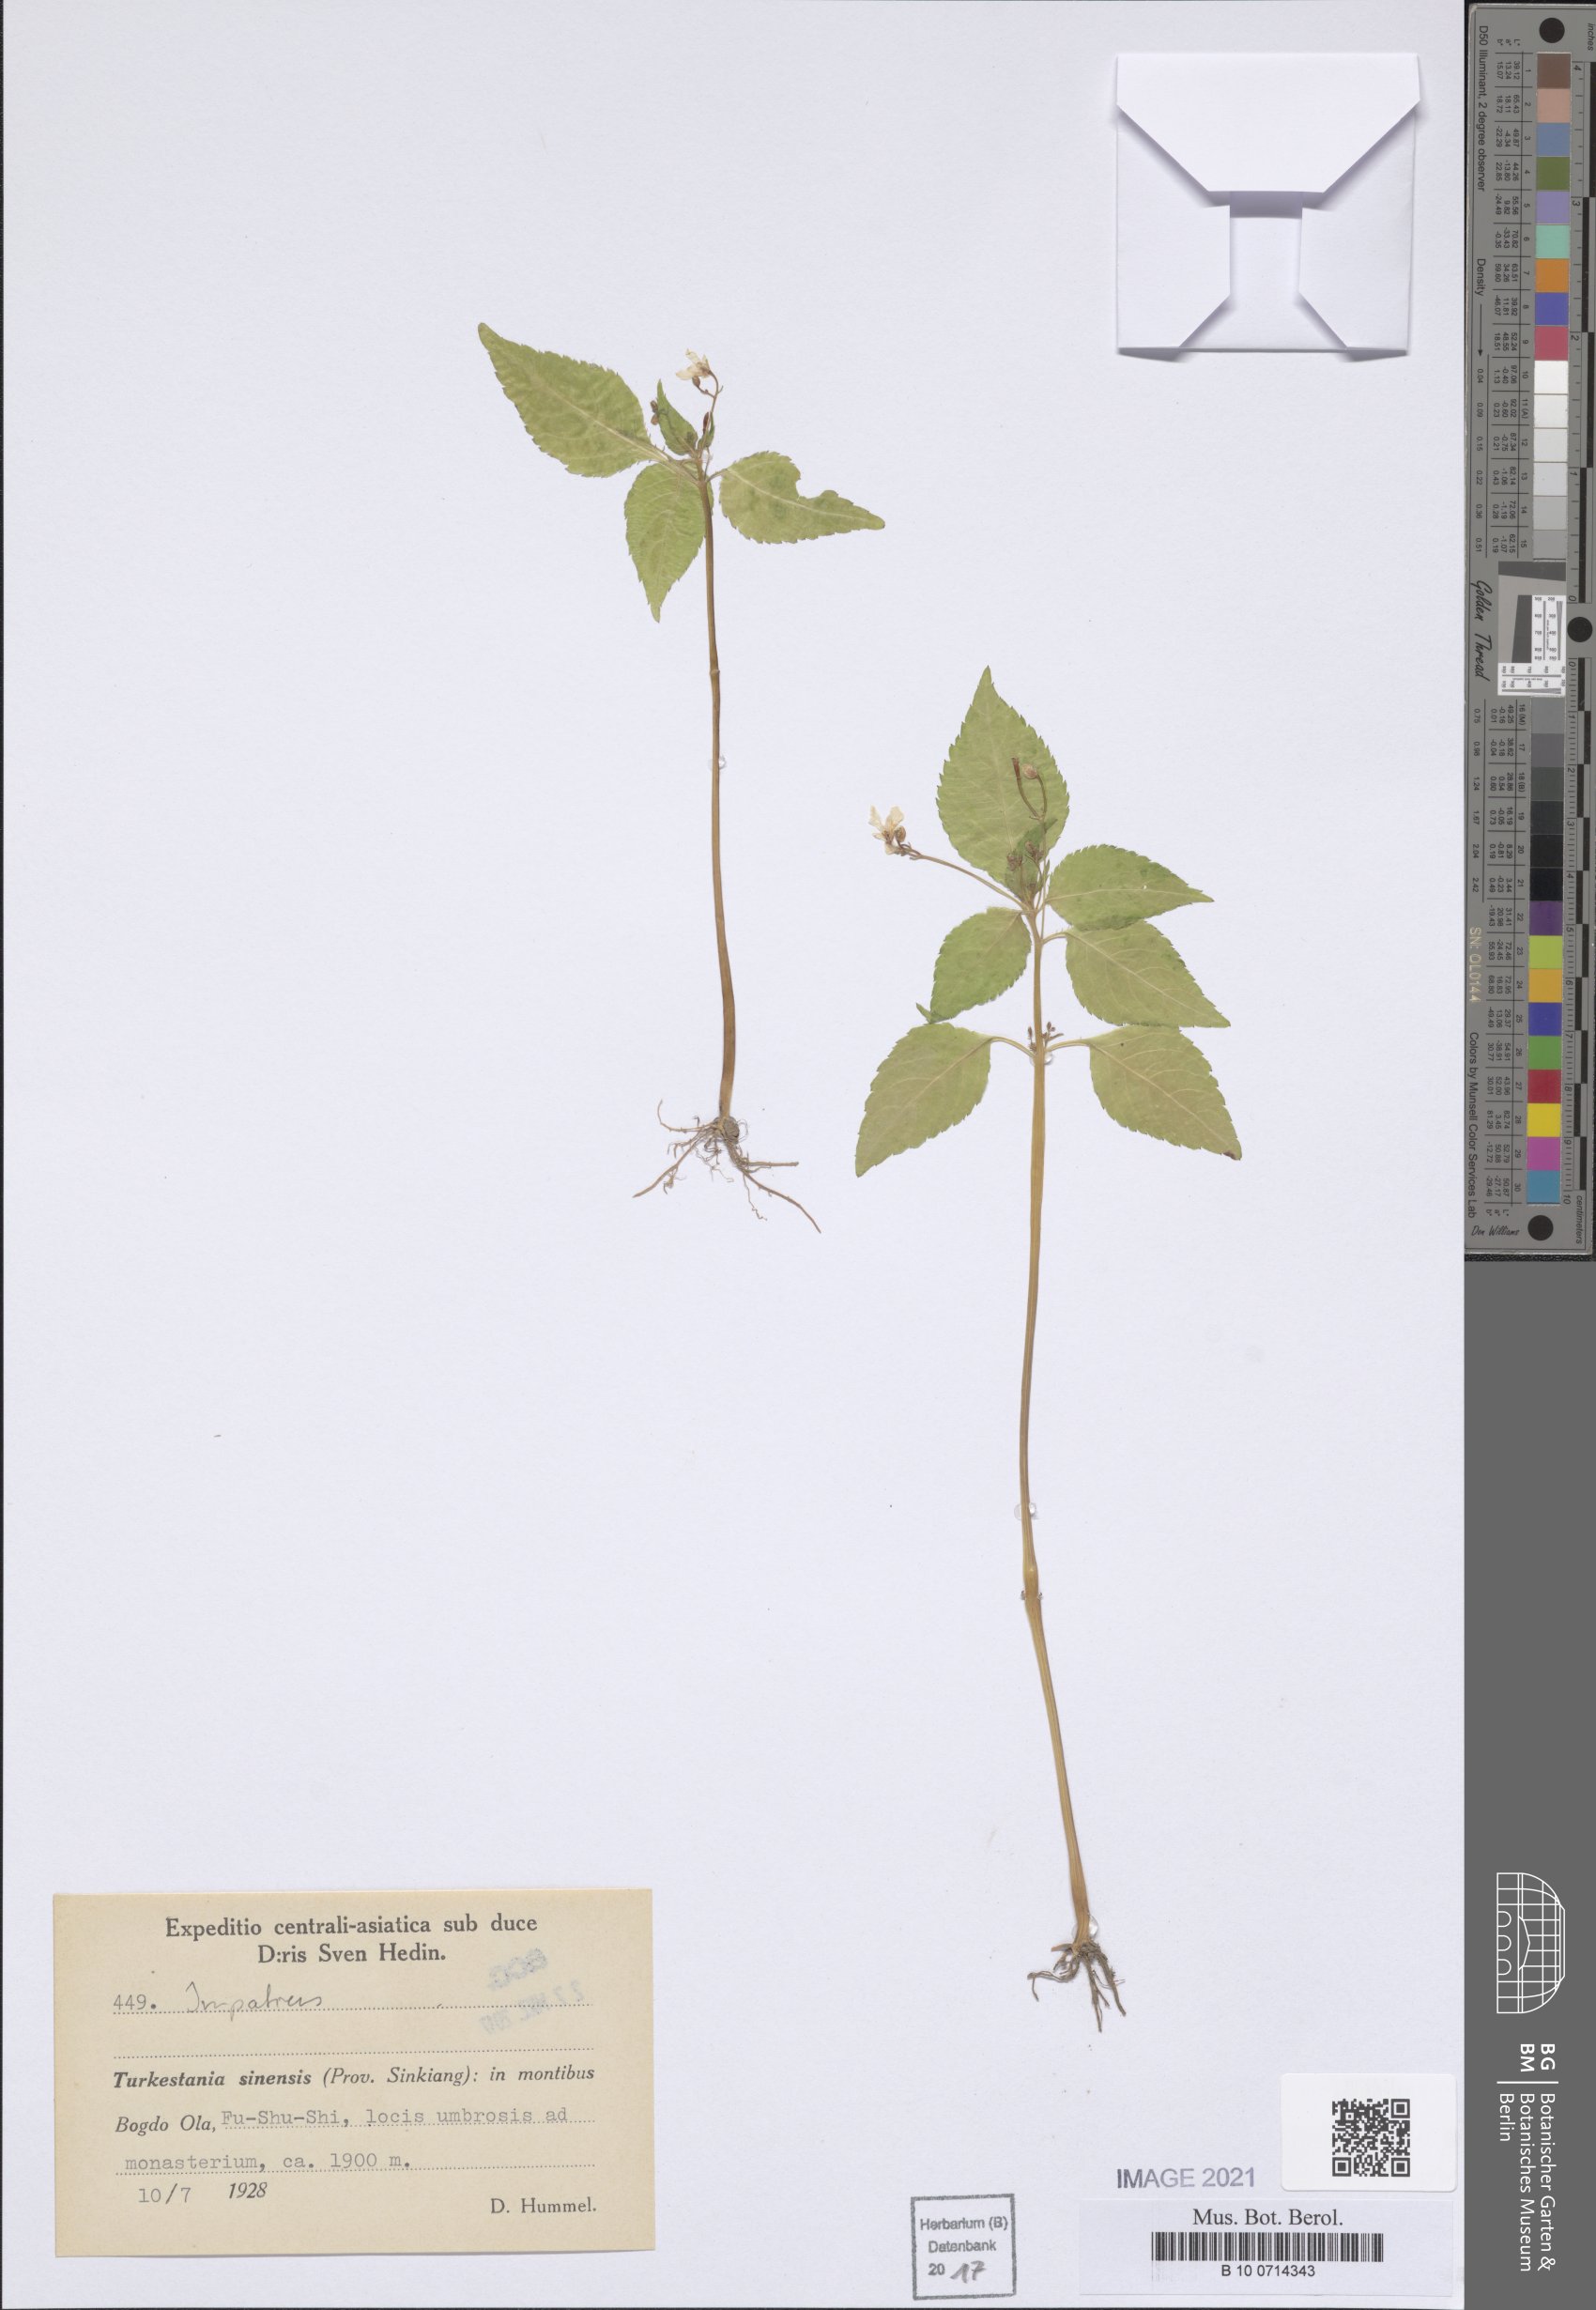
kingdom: Plantae
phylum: Tracheophyta
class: Magnoliopsida
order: Ericales
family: Balsaminaceae
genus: Impatiens
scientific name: Impatiens
